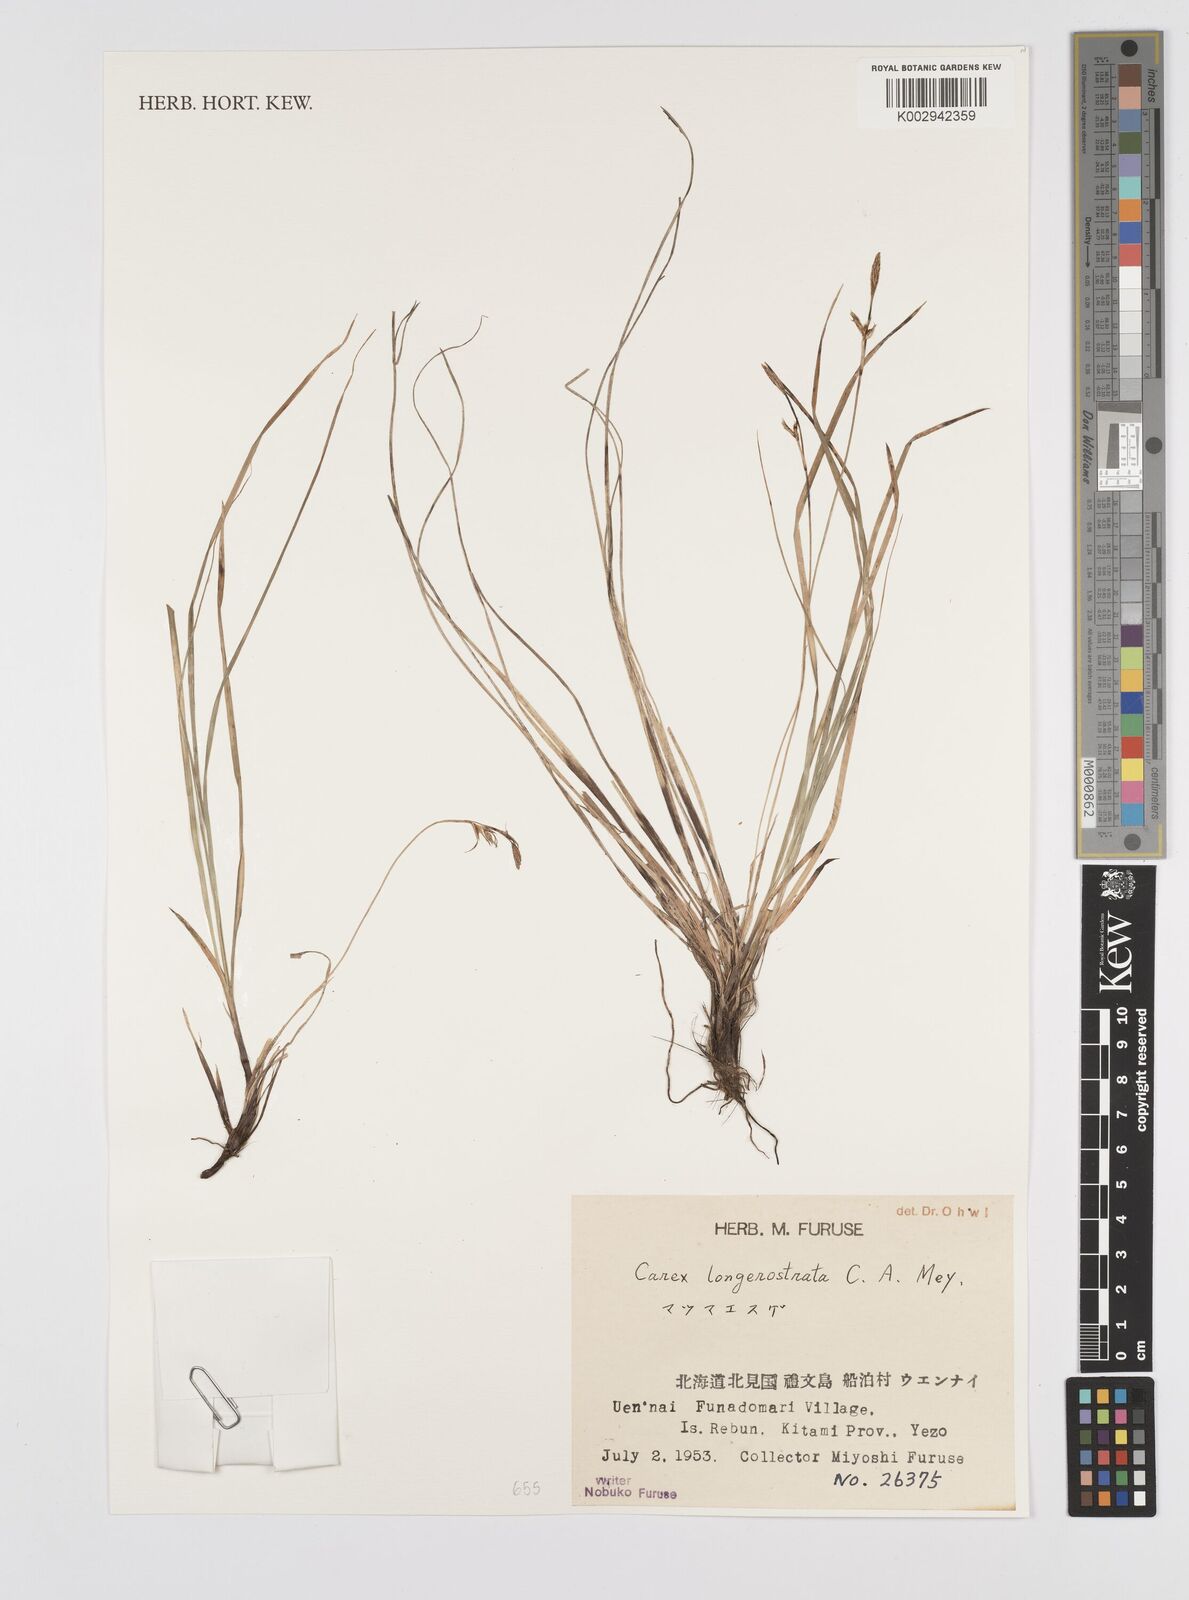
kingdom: Plantae
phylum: Tracheophyta
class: Liliopsida
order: Poales
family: Cyperaceae
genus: Carex
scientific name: Carex longerostrata
